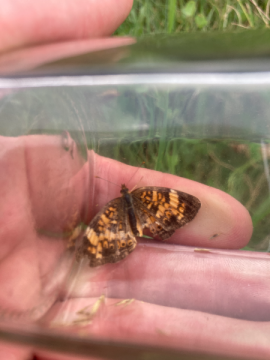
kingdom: Animalia
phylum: Arthropoda
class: Insecta
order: Lepidoptera
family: Nymphalidae
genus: Phyciodes
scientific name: Phyciodes tharos
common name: Pearl Crescent
